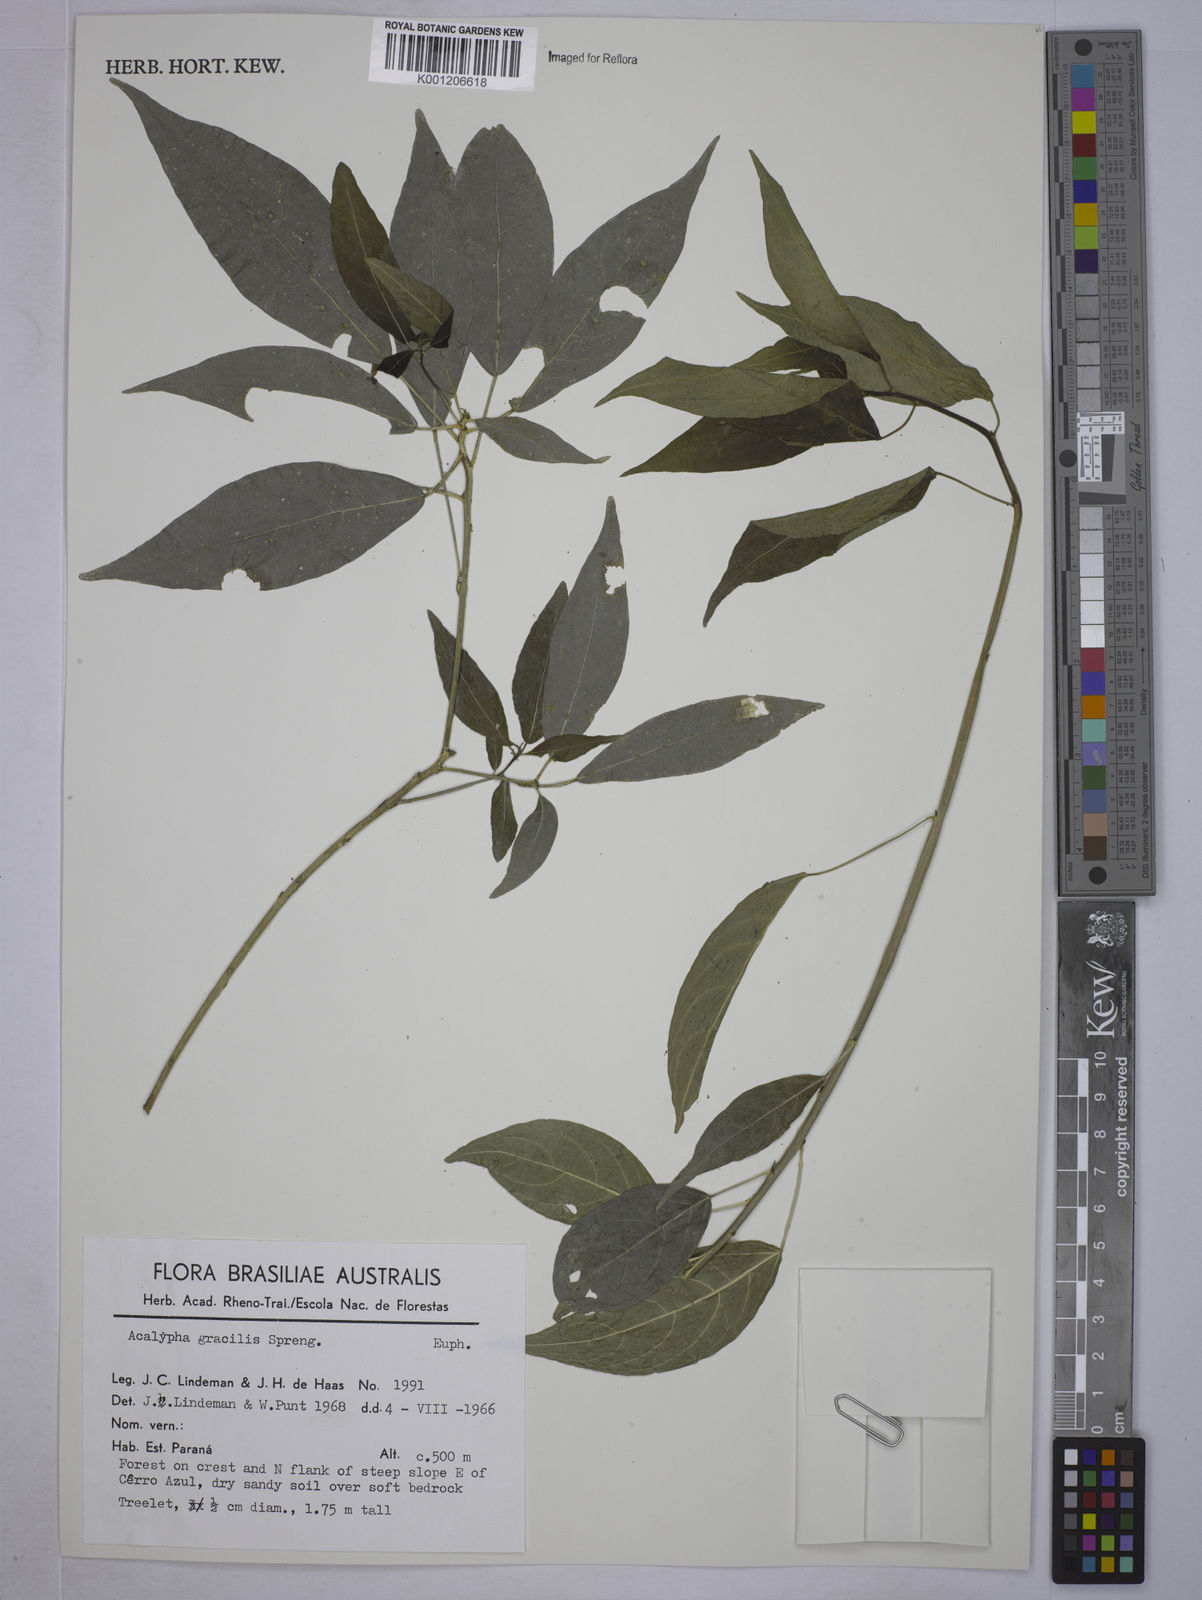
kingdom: Plantae
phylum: Tracheophyta
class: Magnoliopsida
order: Malpighiales
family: Euphorbiaceae
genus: Acalypha
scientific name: Acalypha gracilis
